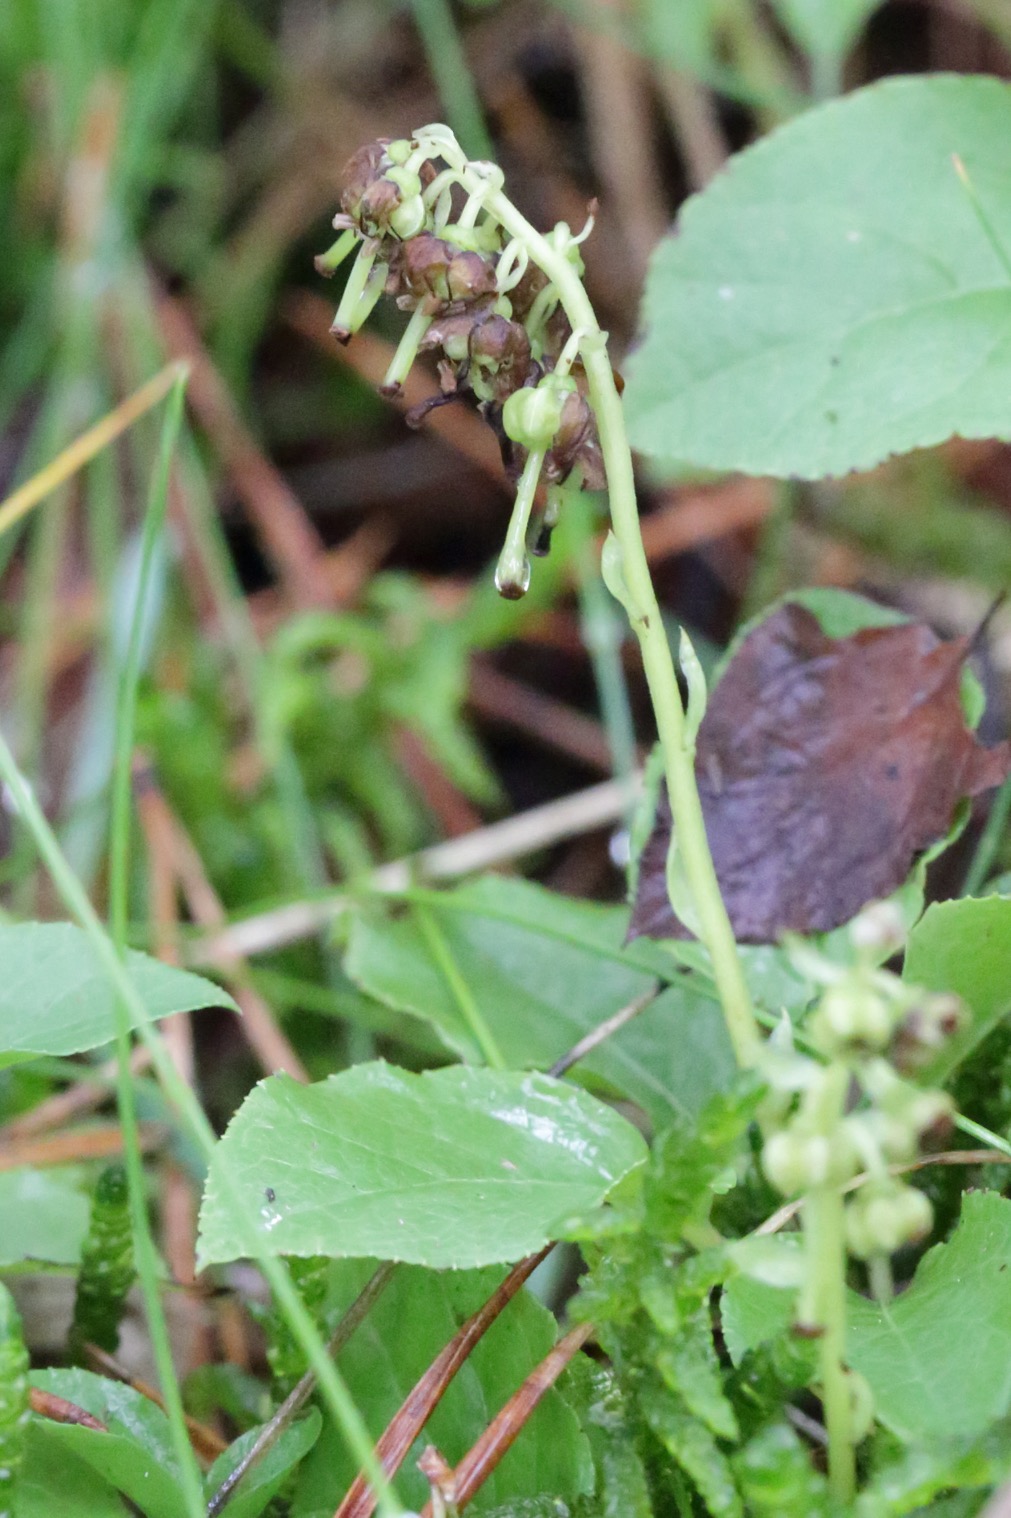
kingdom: Plantae
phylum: Tracheophyta
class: Magnoliopsida
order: Ericales
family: Ericaceae
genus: Orthilia
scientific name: Orthilia secunda
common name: Ensidig vintergrøn
